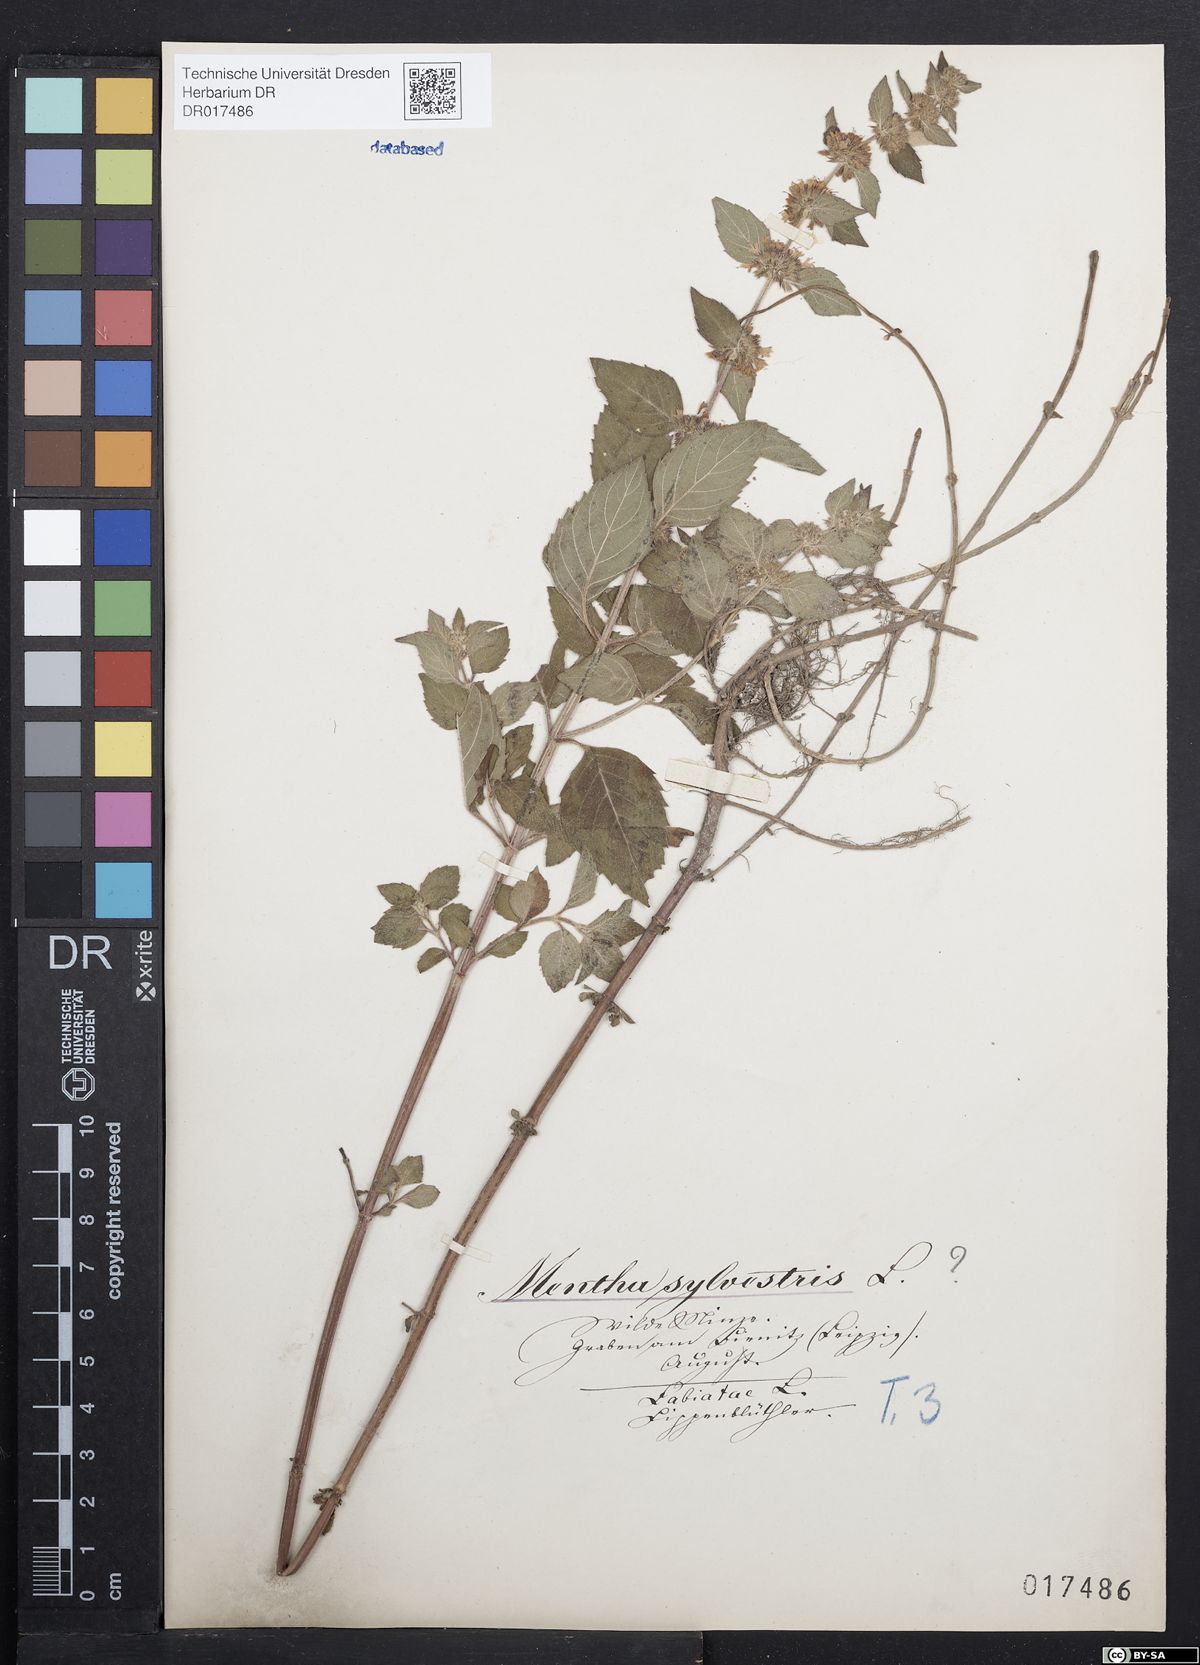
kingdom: Plantae
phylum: Tracheophyta
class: Magnoliopsida
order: Lamiales
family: Lamiaceae
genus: Mentha
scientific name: Mentha verticillata
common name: Mint
